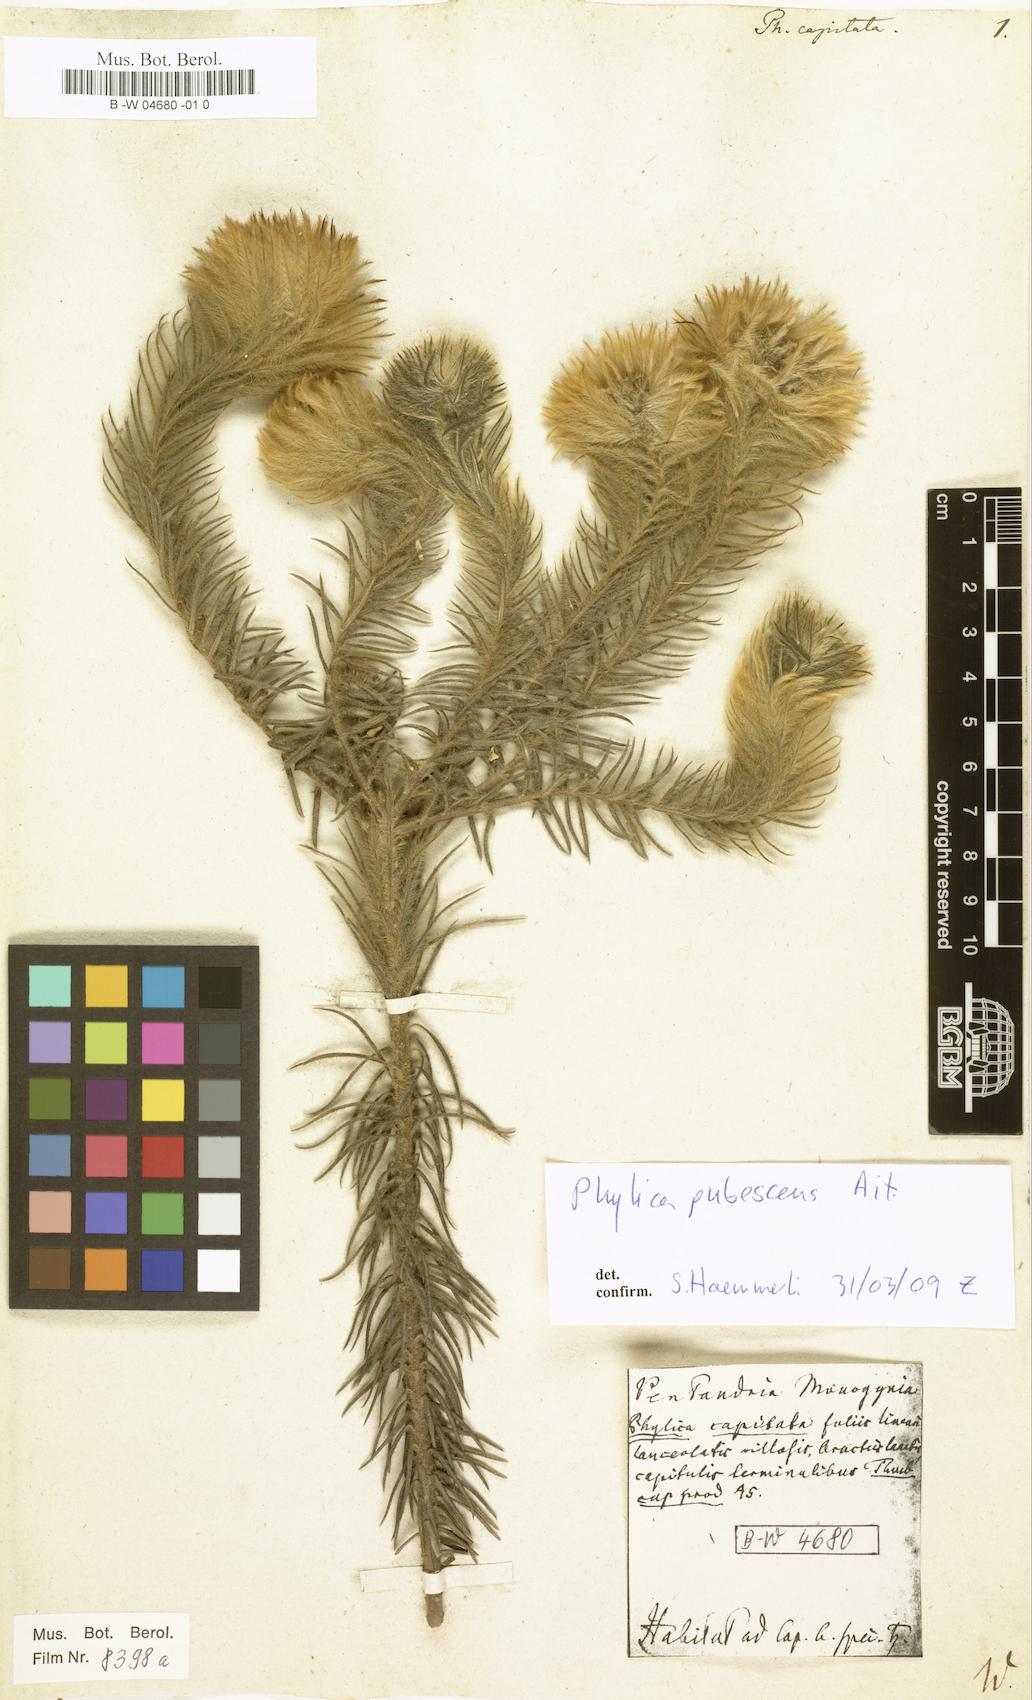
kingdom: Plantae
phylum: Tracheophyta
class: Magnoliopsida
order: Rosales
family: Rhamnaceae
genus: Phylica
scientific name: Phylica pubescens
